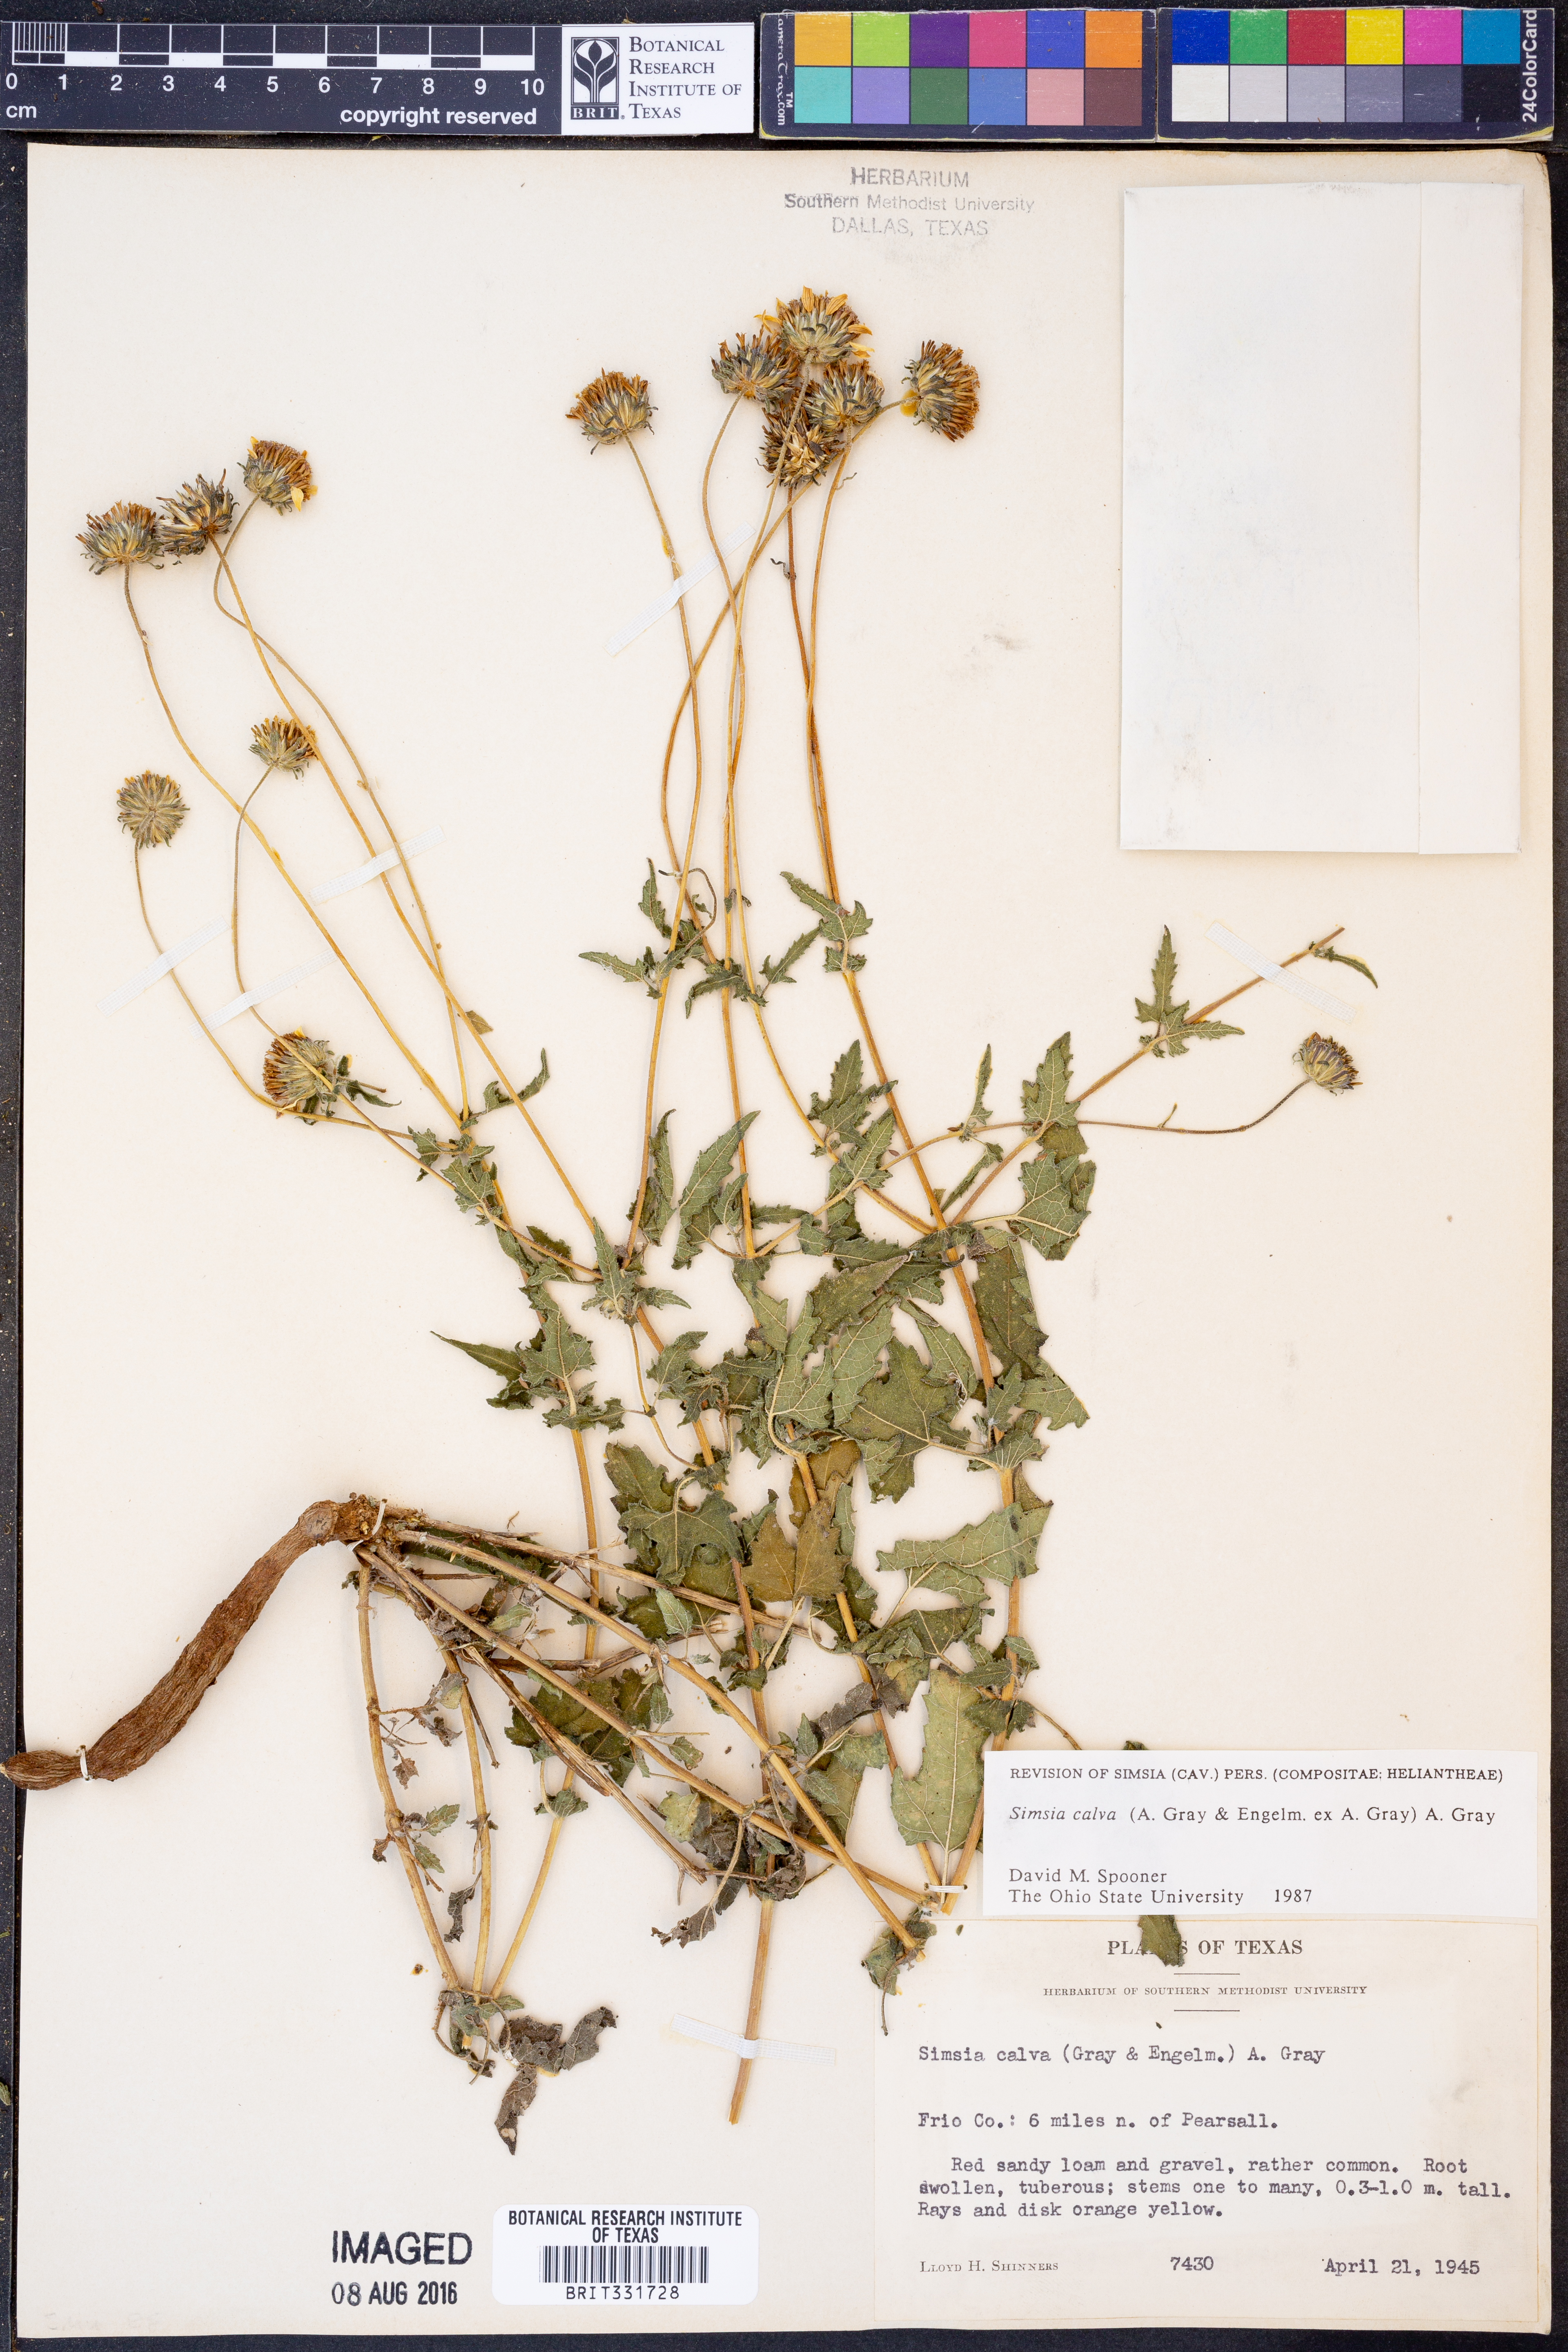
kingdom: Plantae
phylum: Tracheophyta
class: Magnoliopsida
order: Asterales
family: Asteraceae
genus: Simsia
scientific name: Simsia calva
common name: Awnless bush-sunflower
